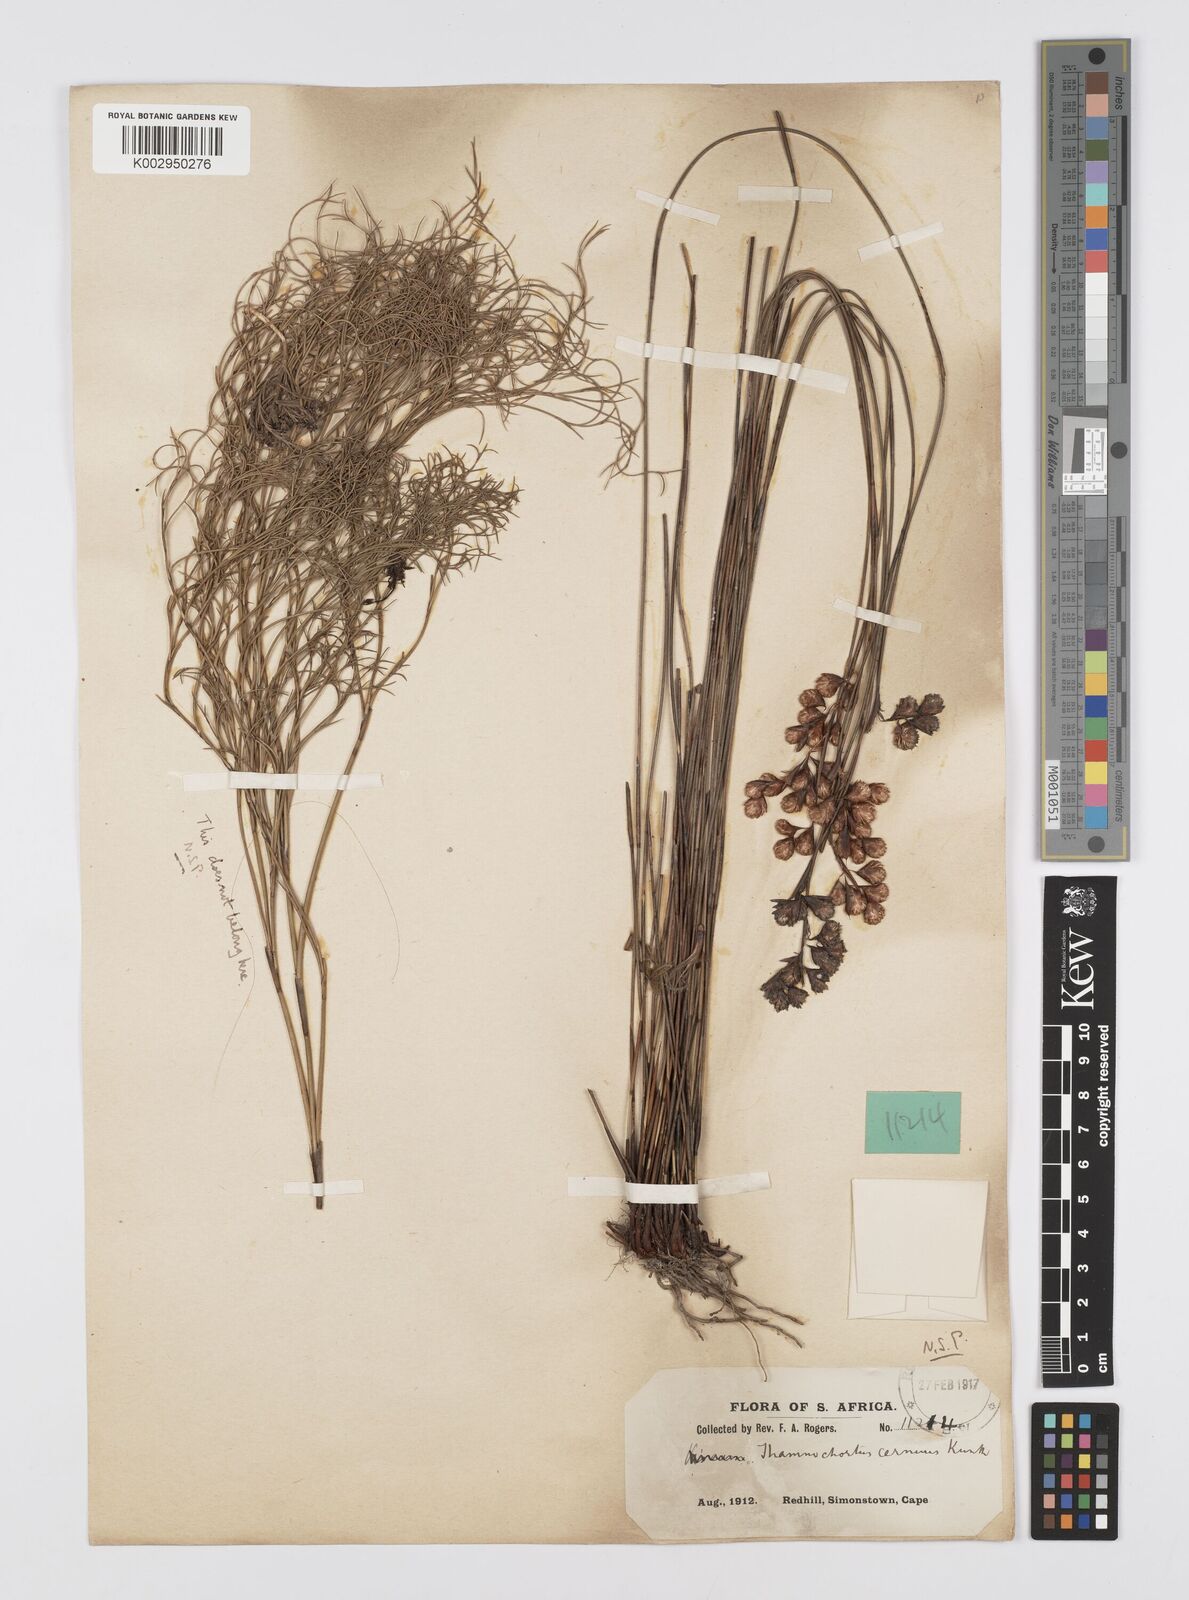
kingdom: Plantae
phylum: Tracheophyta
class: Liliopsida
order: Poales
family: Restionaceae
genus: Staberoha
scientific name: Staberoha cernua
